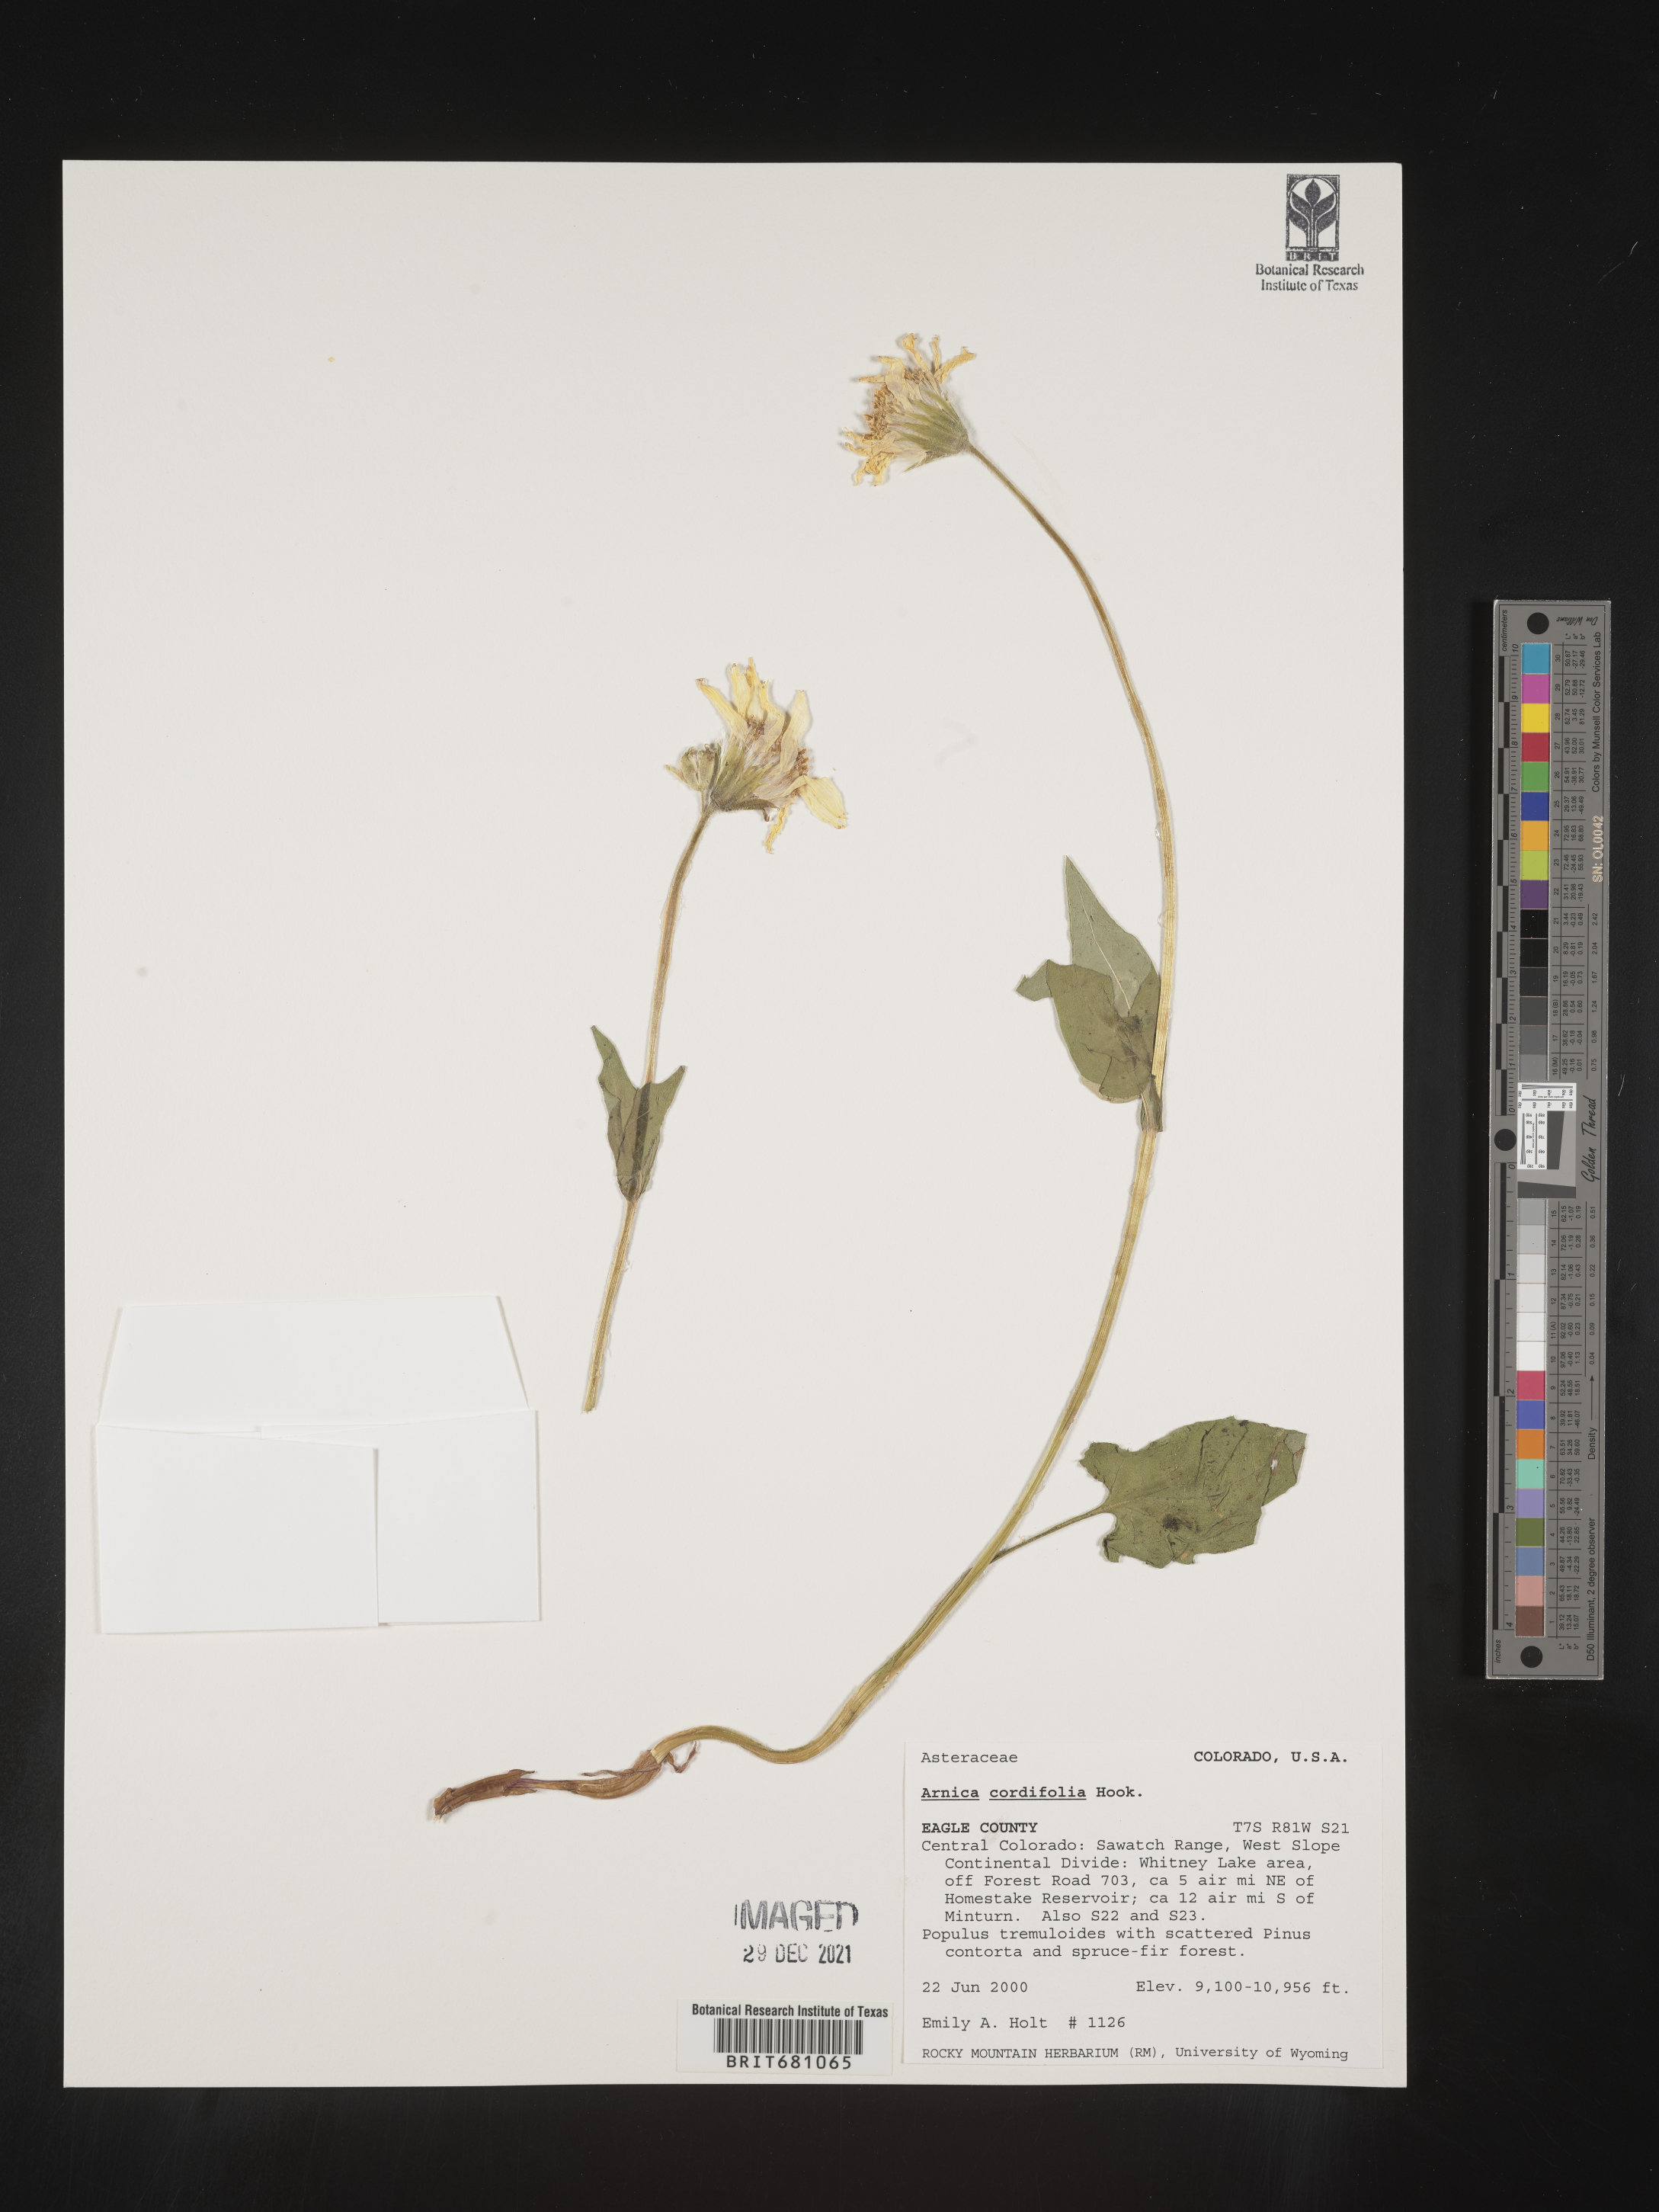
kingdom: Plantae
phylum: Tracheophyta
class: Magnoliopsida
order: Asterales
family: Asteraceae
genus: Arnica
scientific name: Arnica cordifolia
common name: Heart-leaf arnica
